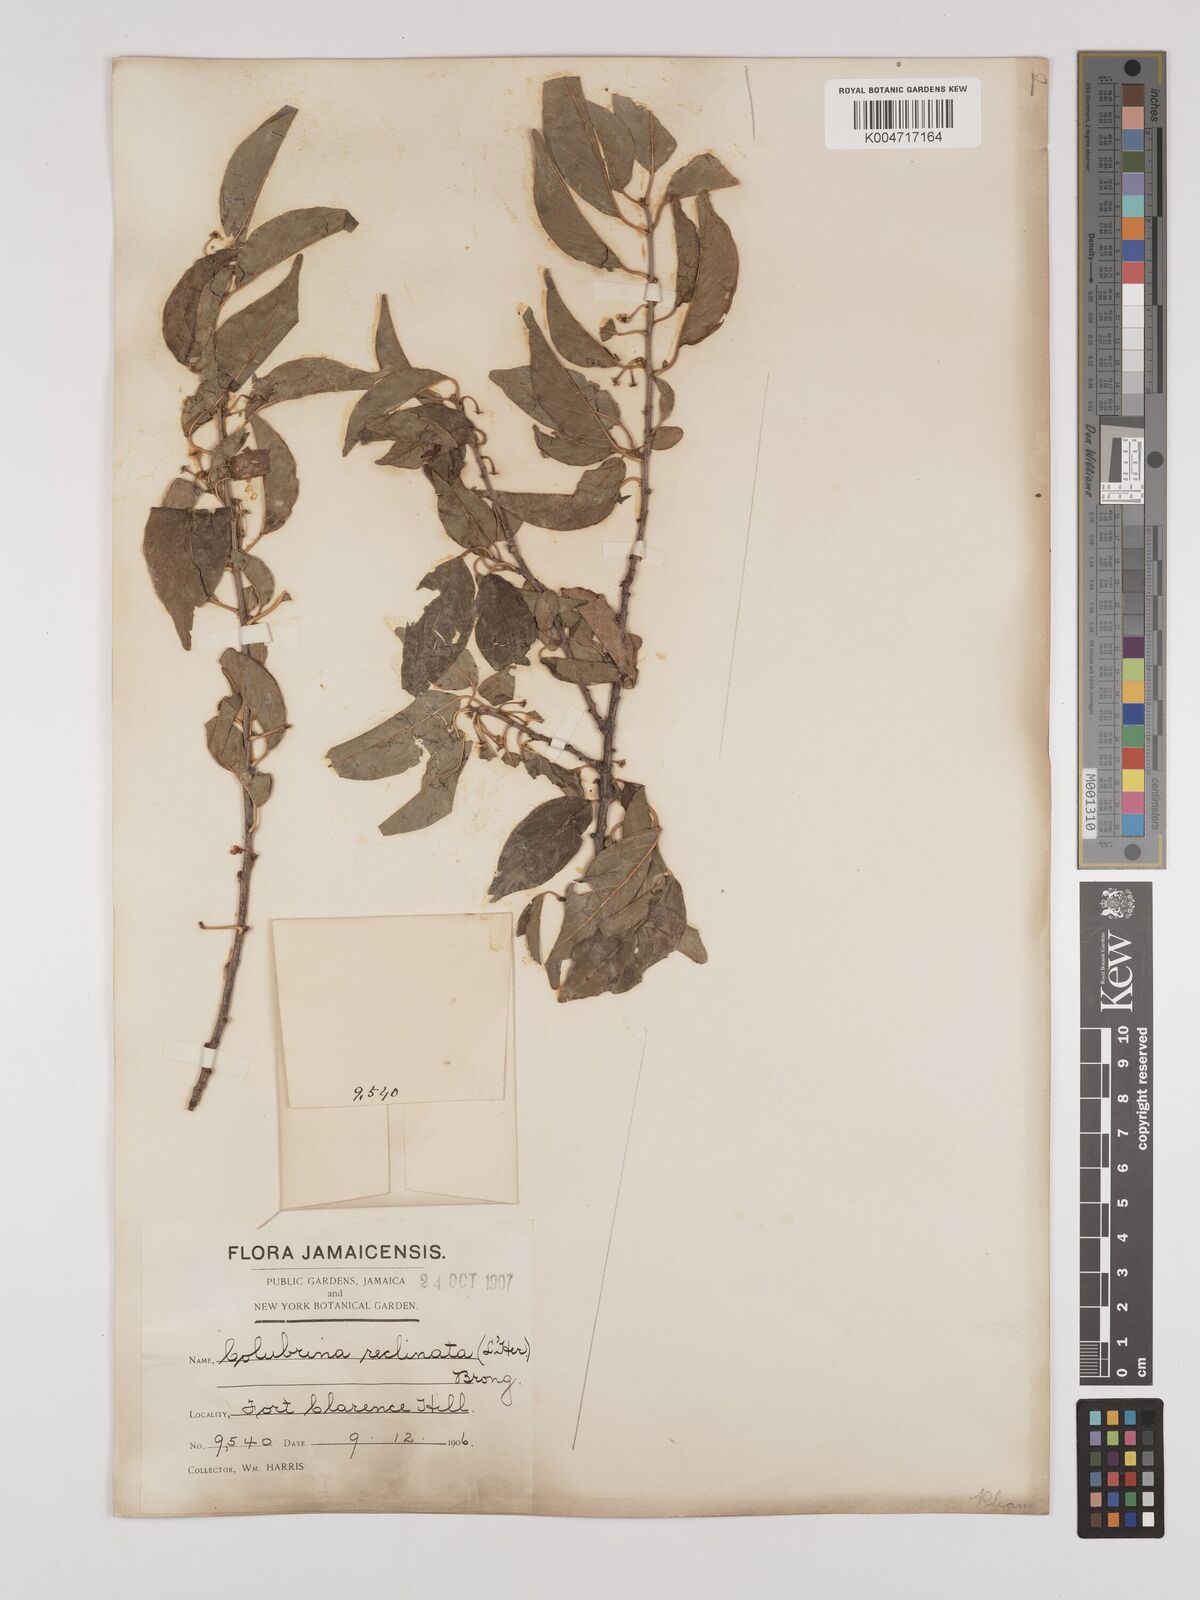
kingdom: Plantae
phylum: Tracheophyta
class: Magnoliopsida
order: Rosales
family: Rhamnaceae
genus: Colubrina
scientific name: Colubrina elliptica
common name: Soldierwood
